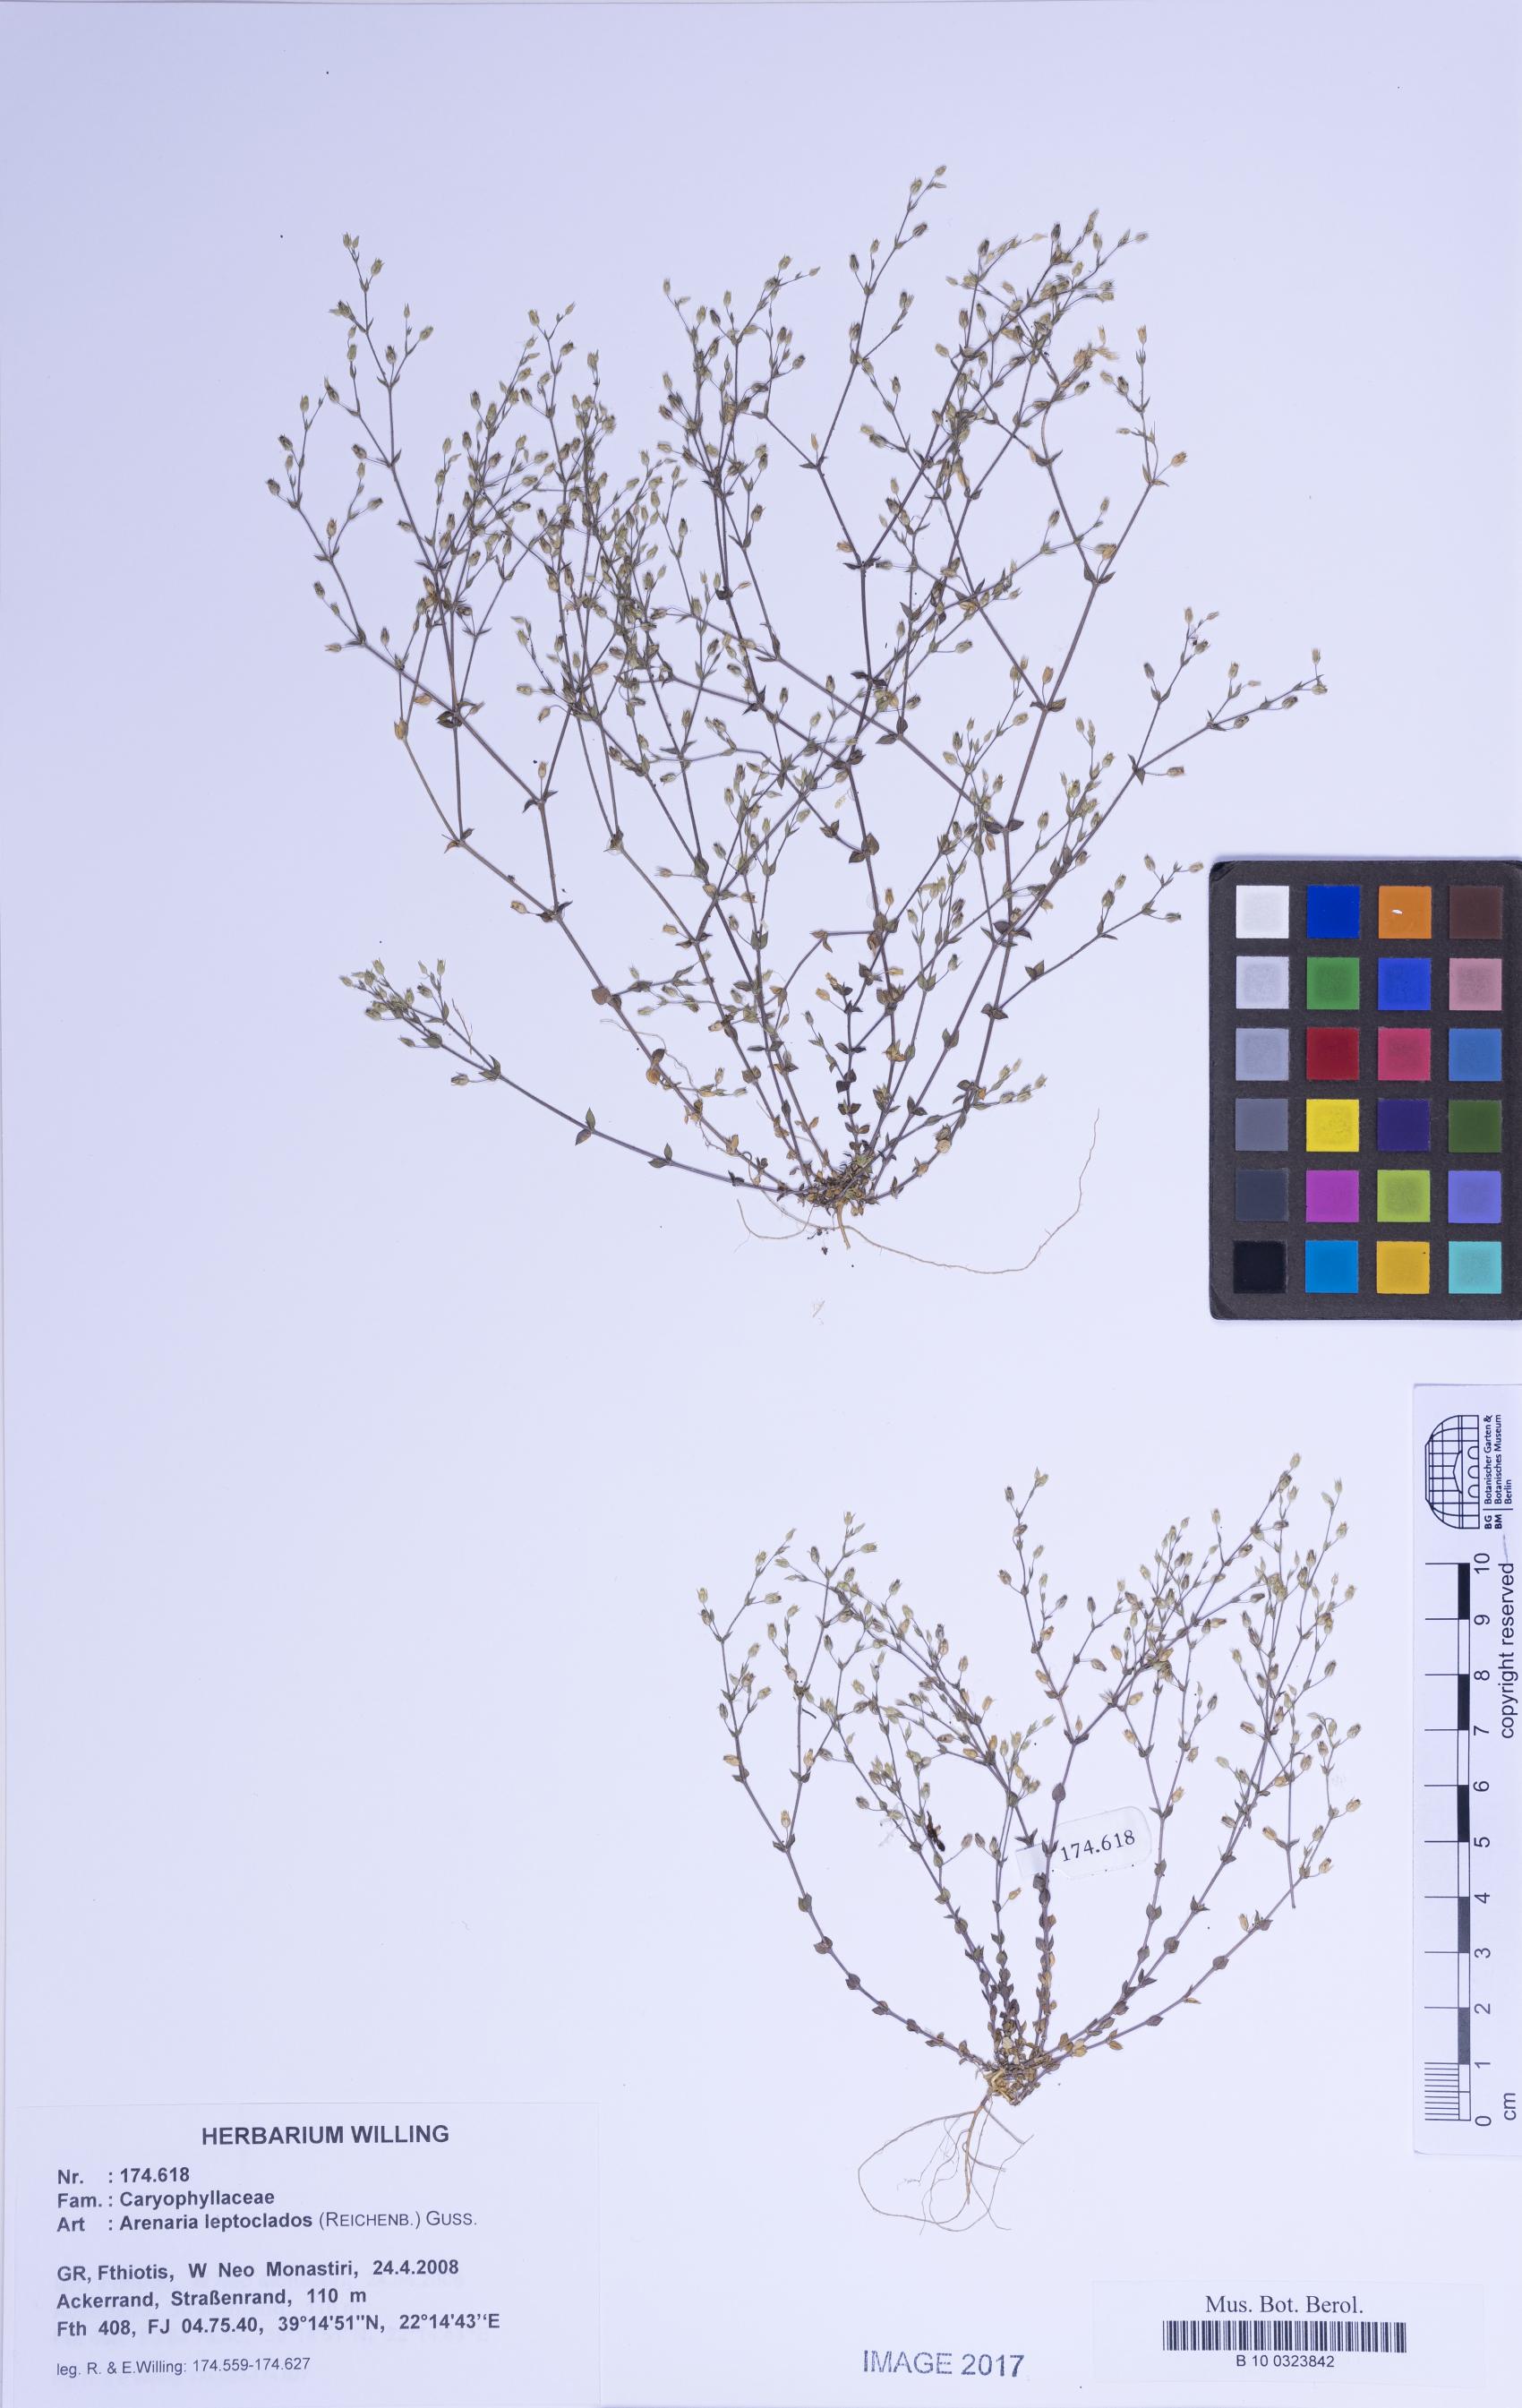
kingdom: Plantae
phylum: Tracheophyta
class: Magnoliopsida
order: Caryophyllales
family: Caryophyllaceae
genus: Arenaria
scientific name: Arenaria leptoclados
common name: Thyme-leaved sandwort
